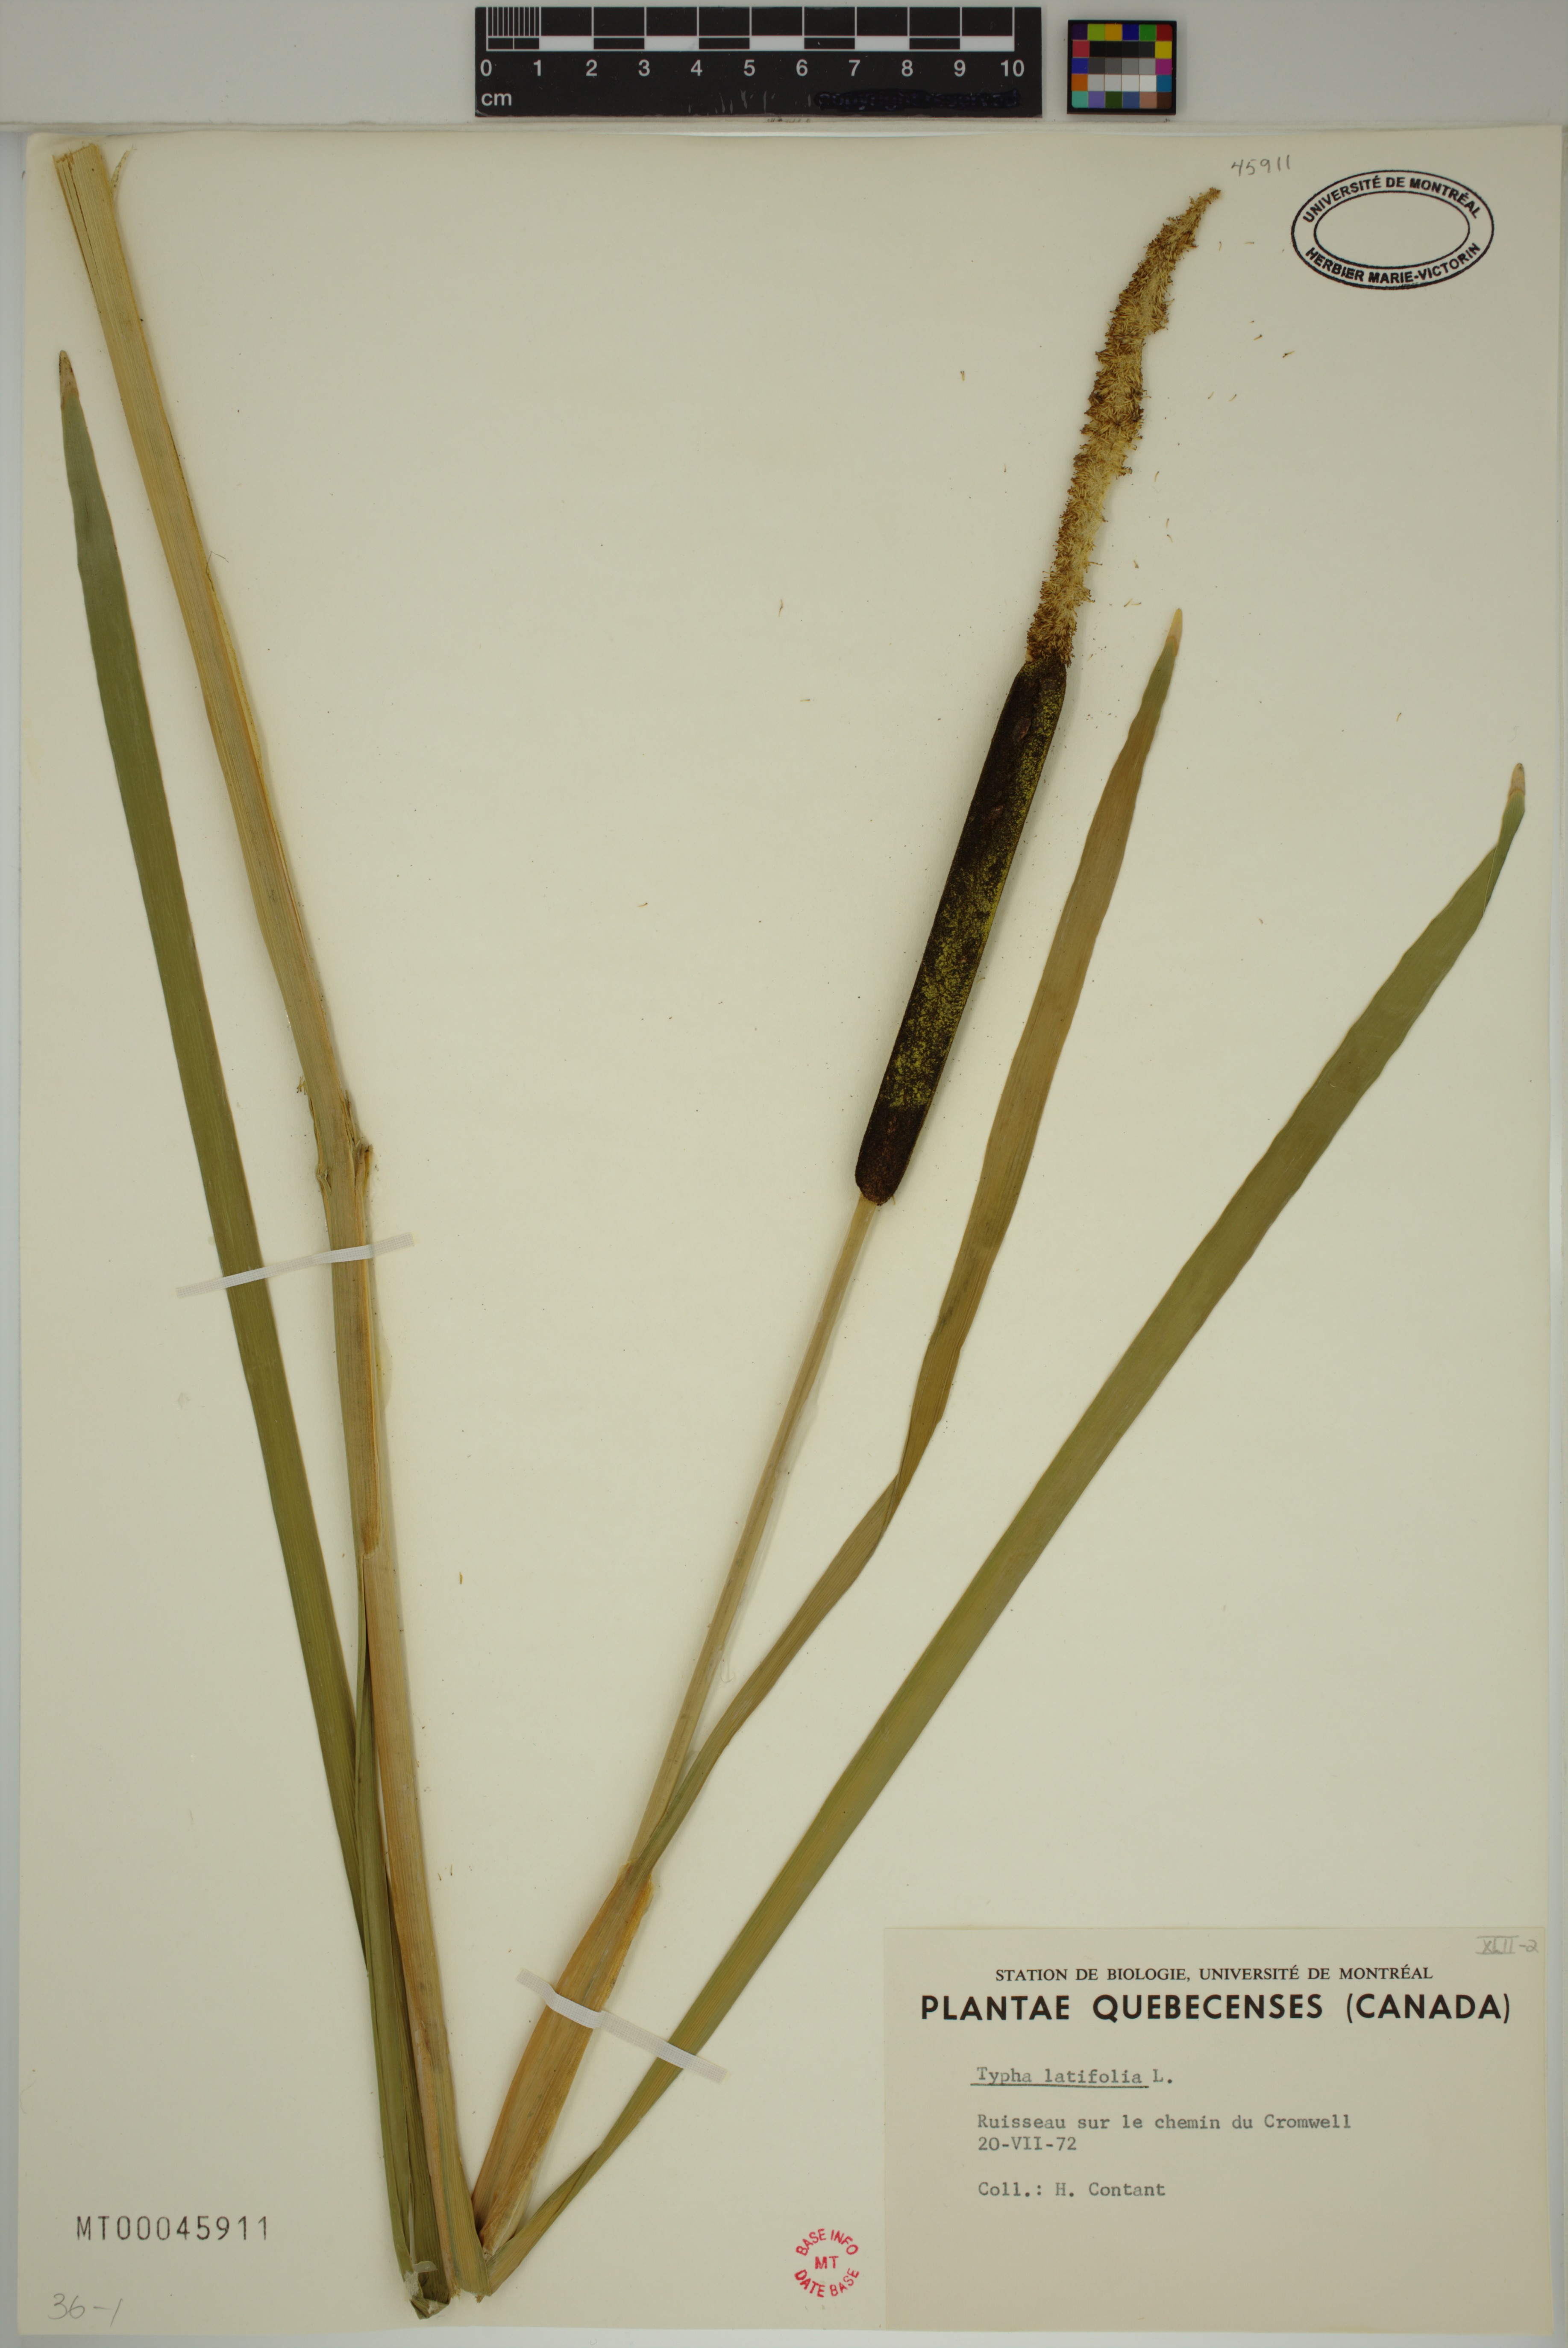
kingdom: Plantae
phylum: Tracheophyta
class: Liliopsida
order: Poales
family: Typhaceae
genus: Typha
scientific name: Typha latifolia
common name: Broadleaf cattail
